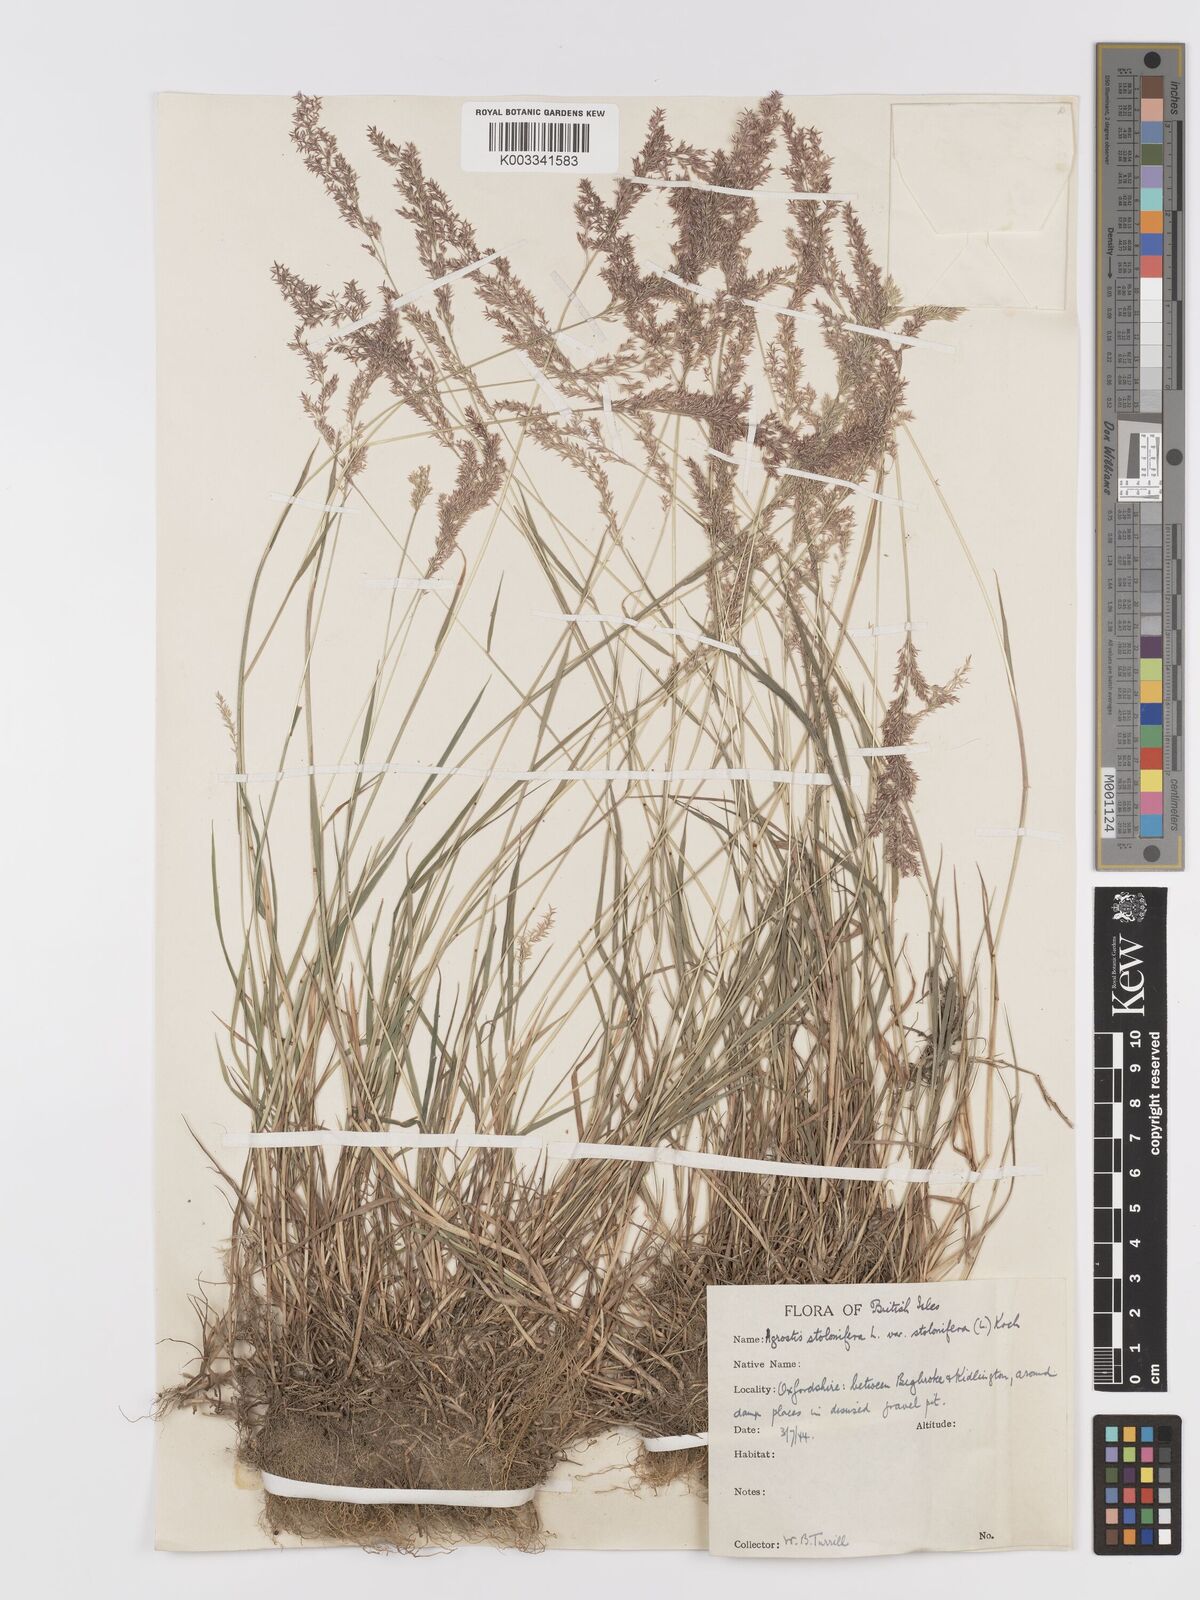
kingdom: Plantae
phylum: Tracheophyta
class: Liliopsida
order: Poales
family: Poaceae
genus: Agrostis
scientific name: Agrostis stolonifera
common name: Creeping bentgrass
